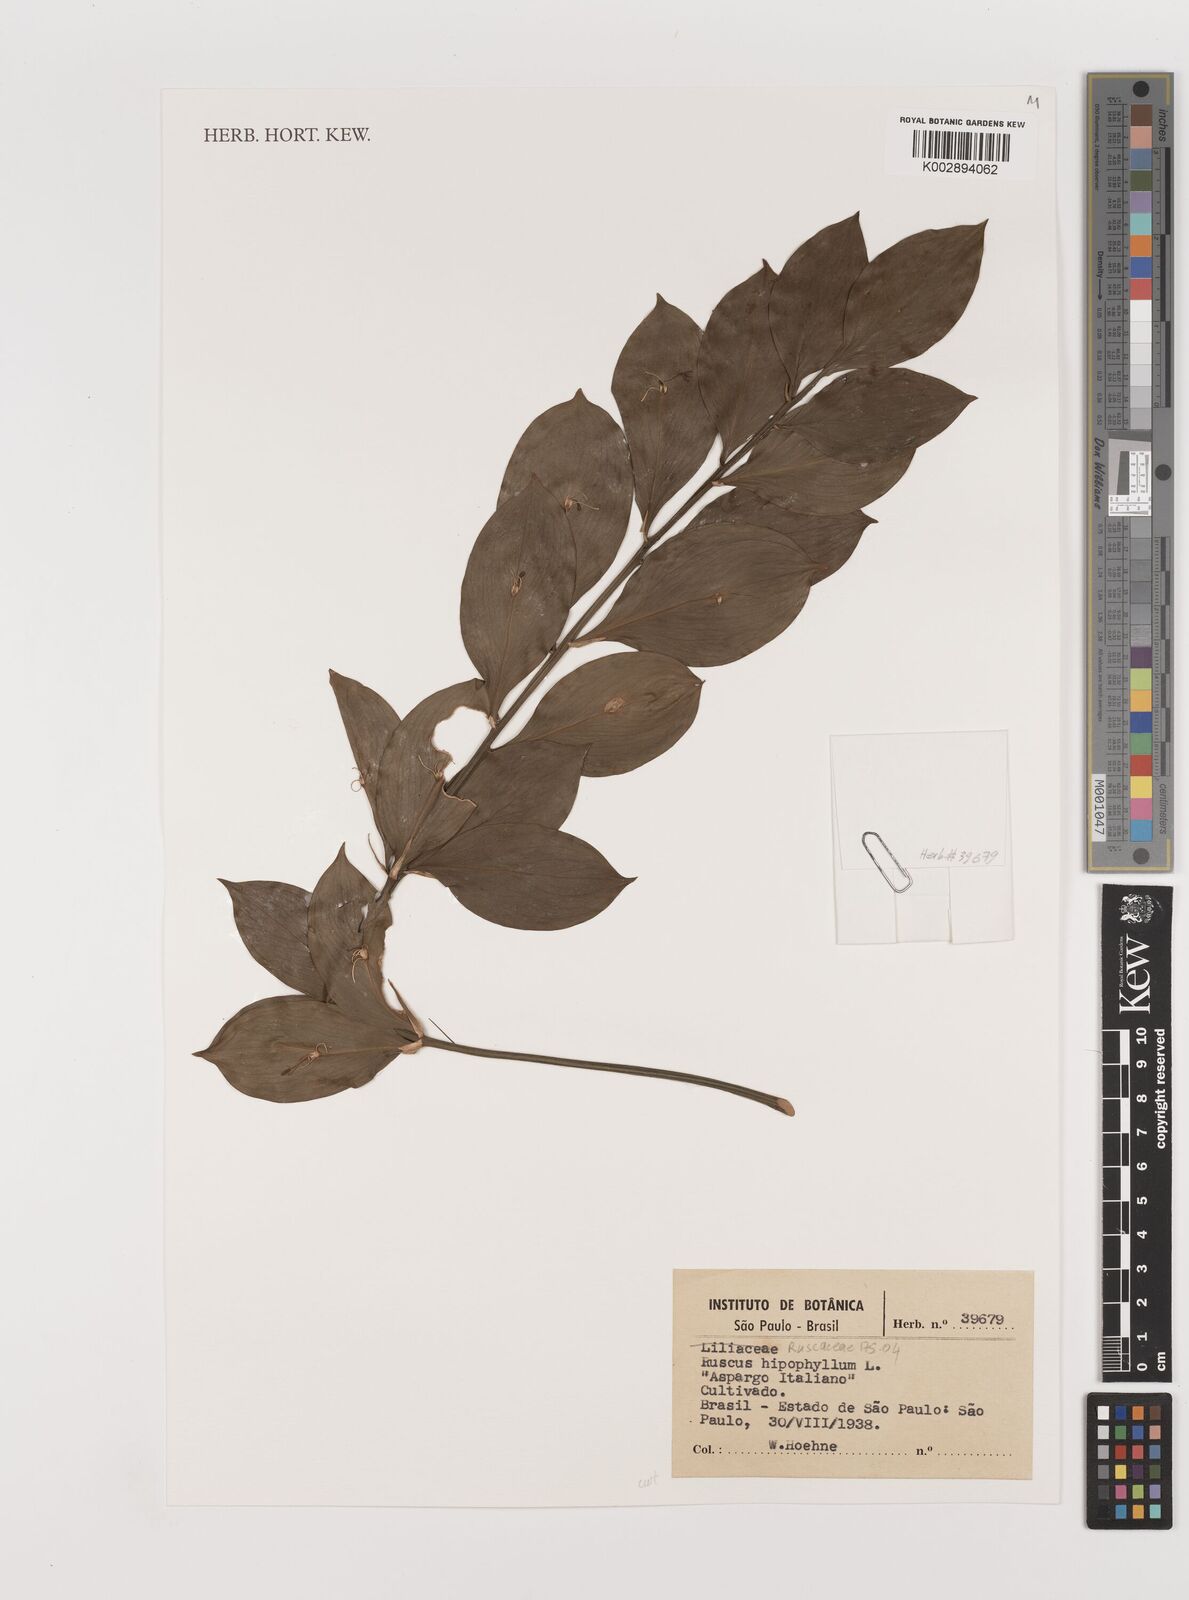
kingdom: Plantae
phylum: Tracheophyta
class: Liliopsida
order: Asparagales
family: Asparagaceae
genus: Ruscus
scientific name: Ruscus hypophyllum
